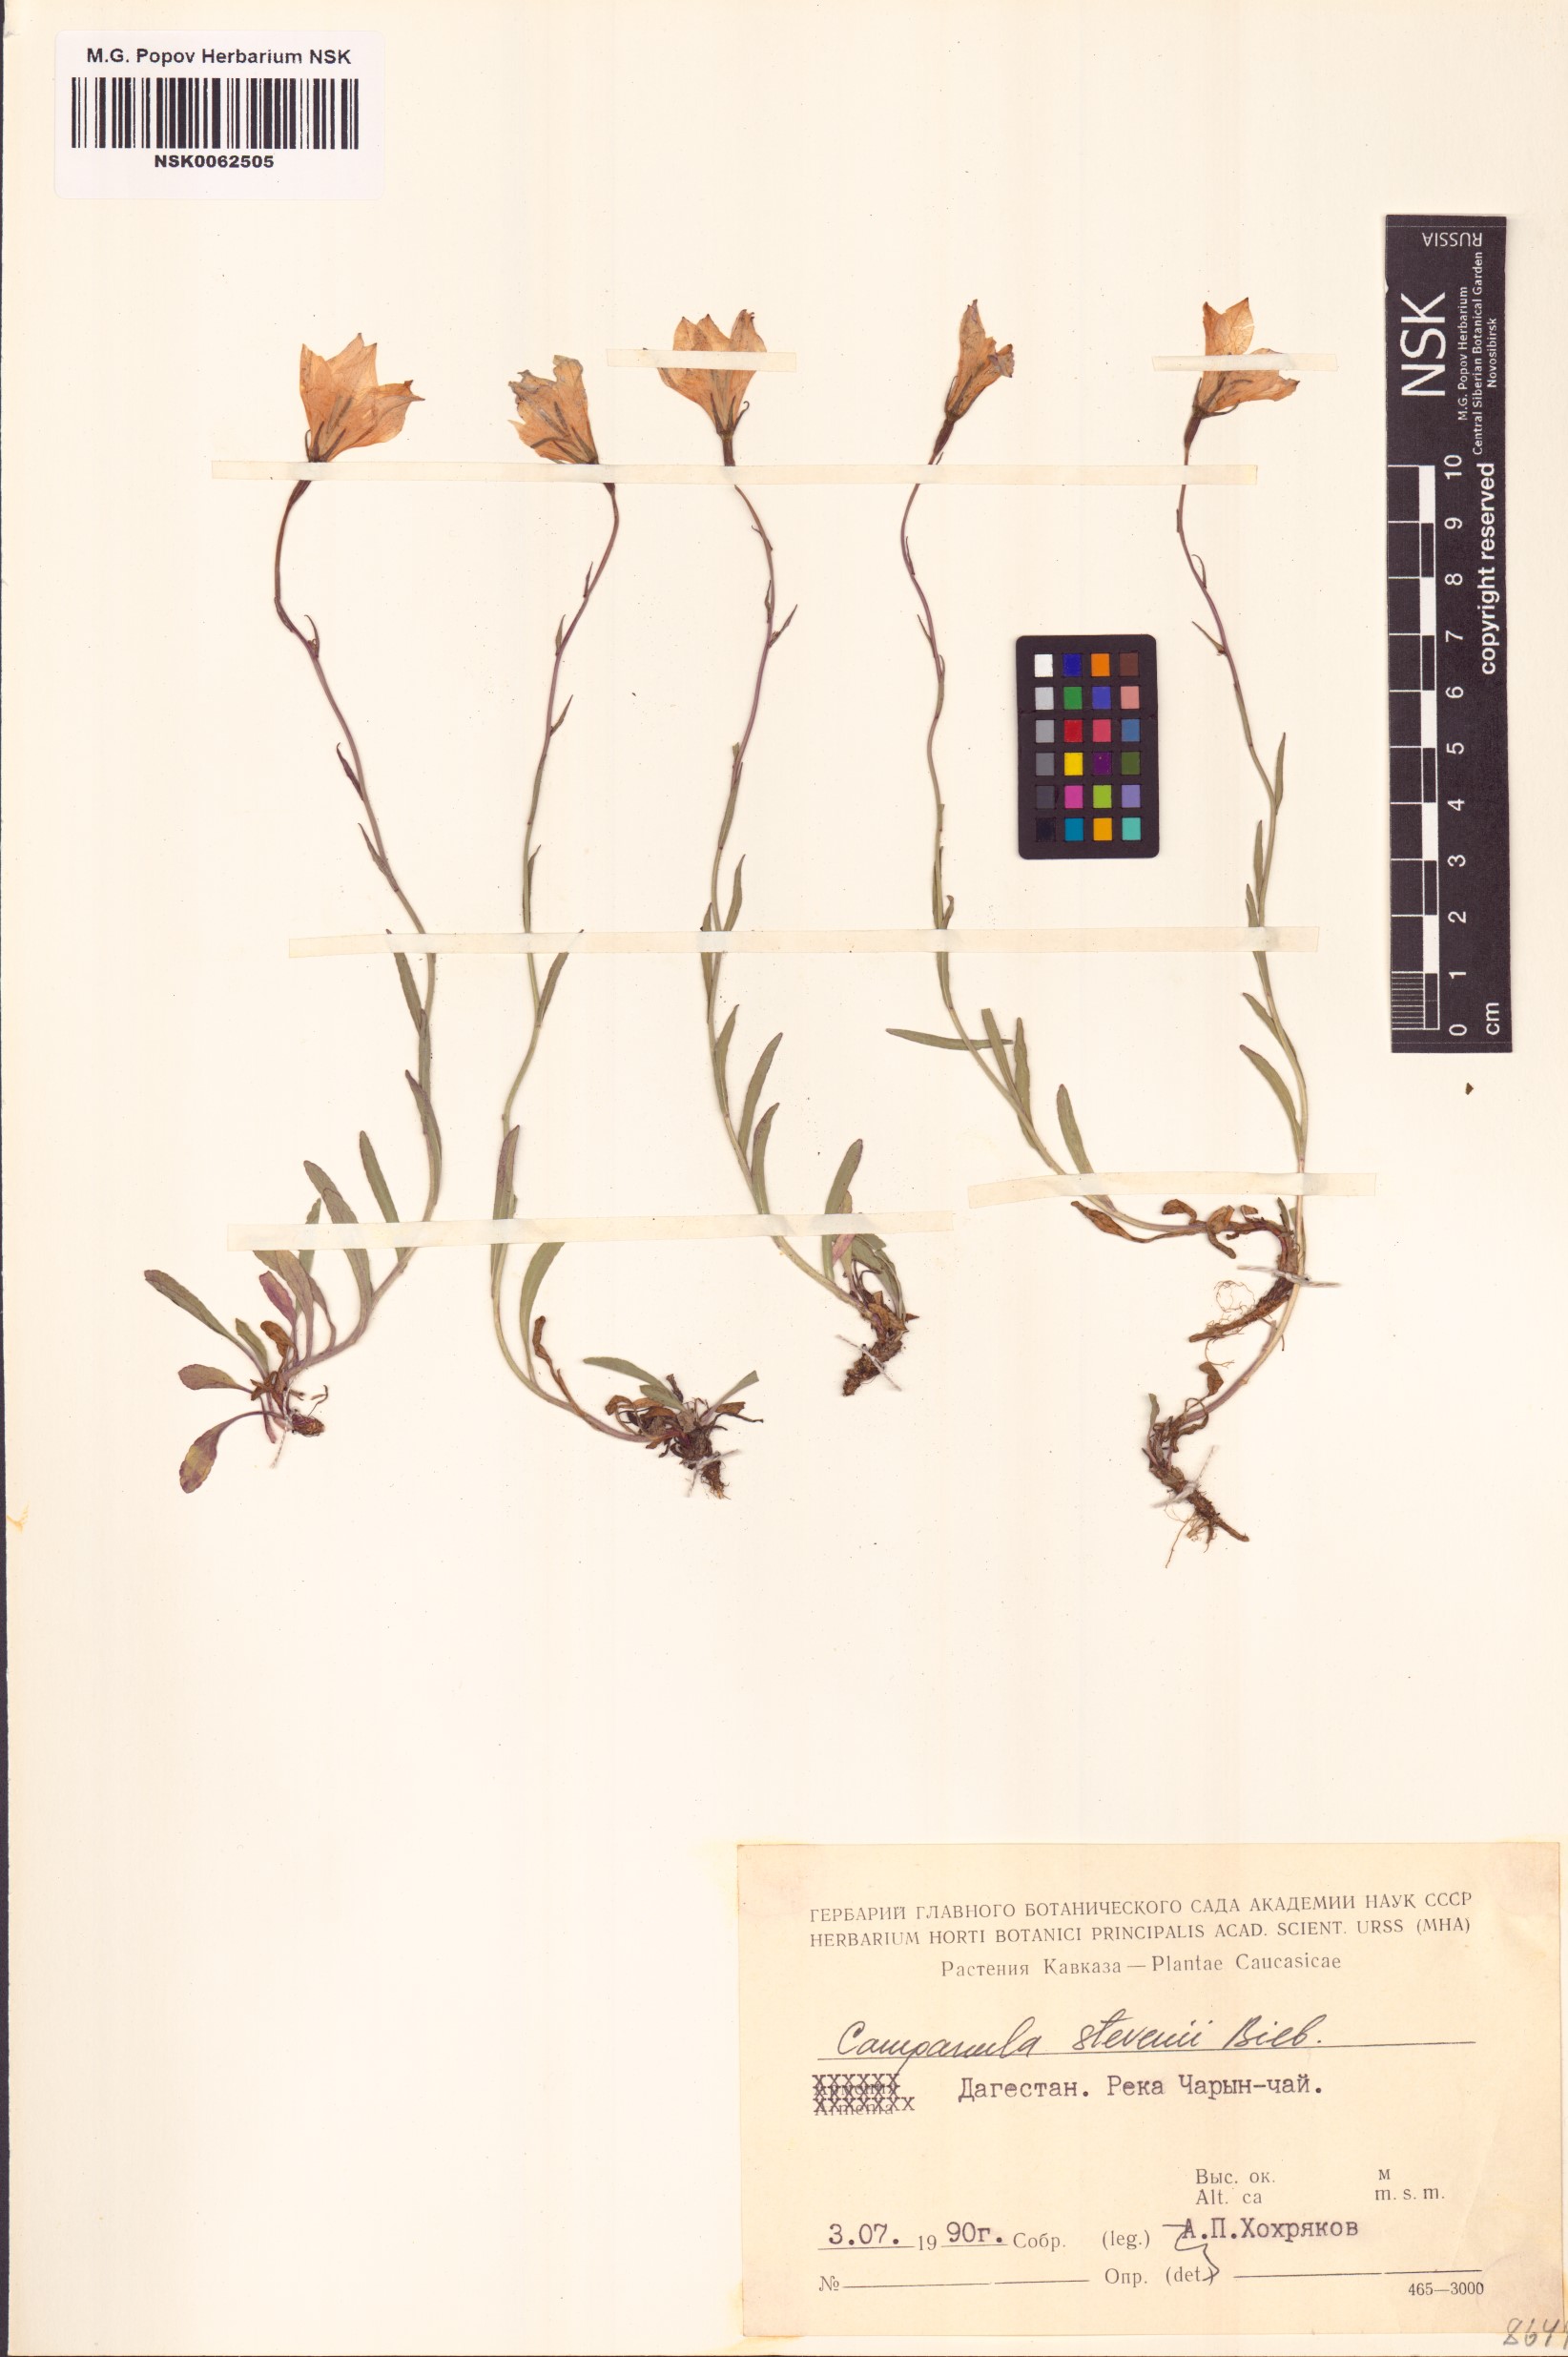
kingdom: Plantae
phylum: Tracheophyta
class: Magnoliopsida
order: Asterales
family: Campanulaceae
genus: Campanula
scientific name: Campanula stevenii
